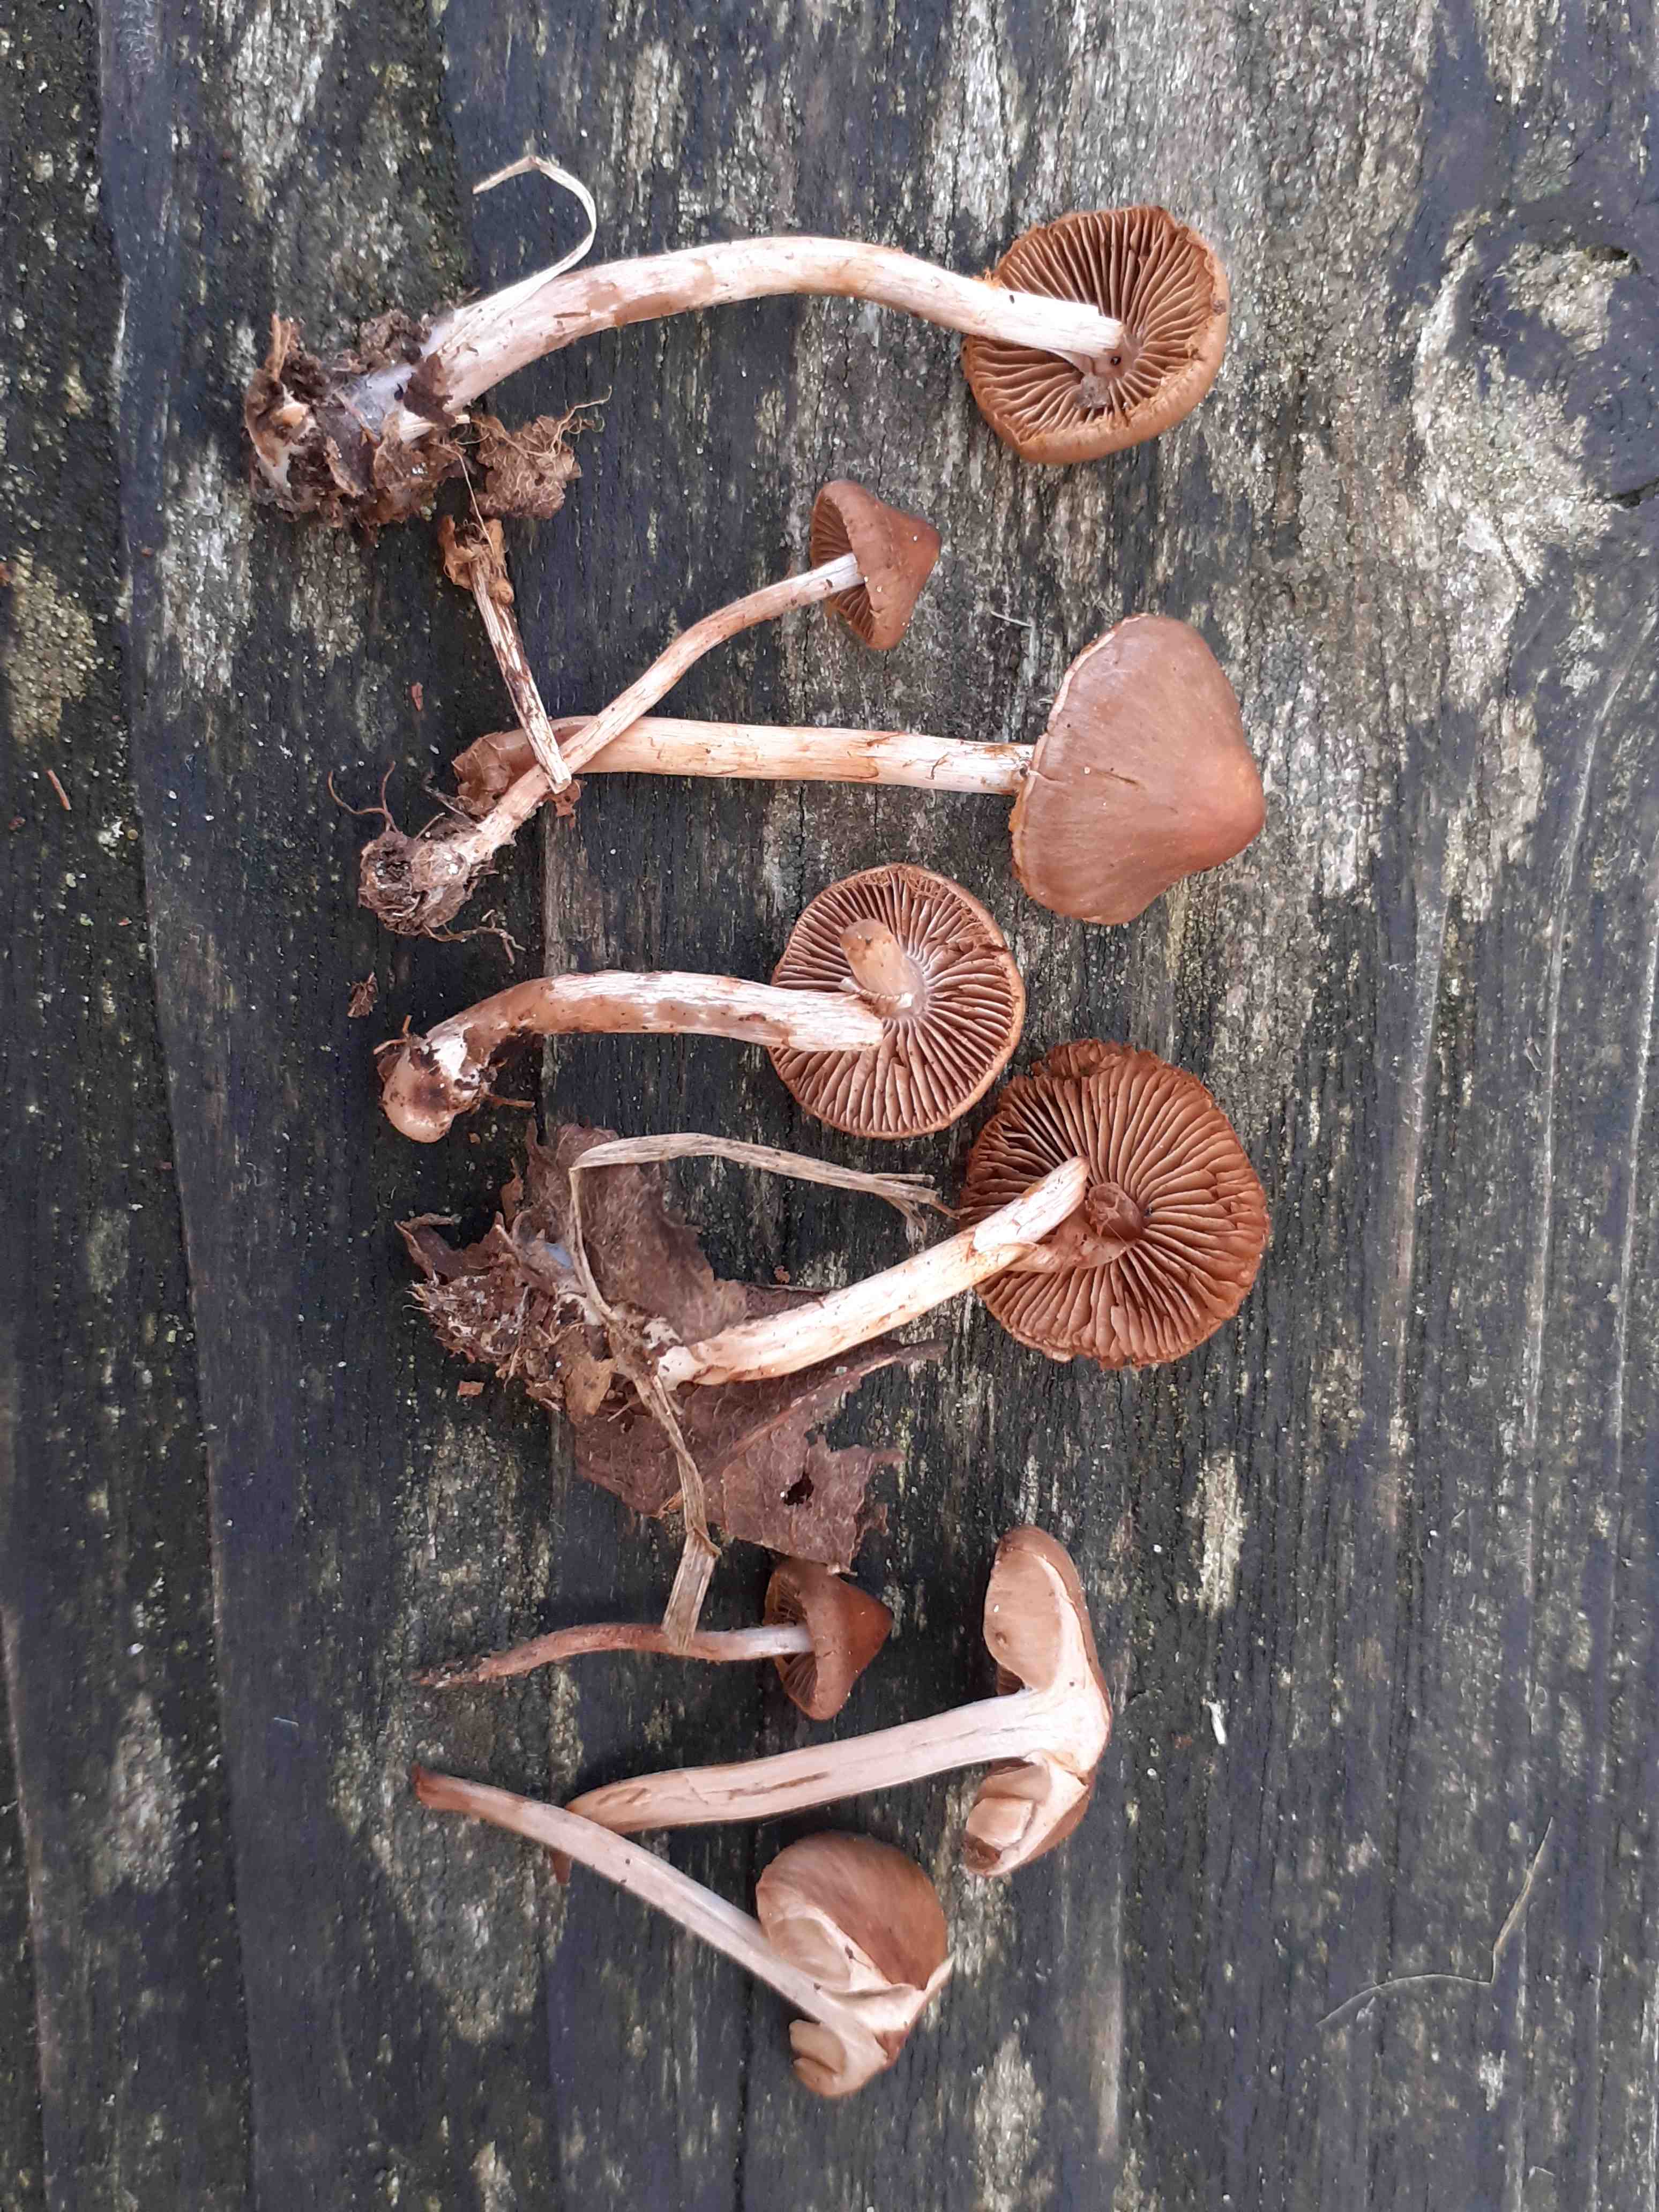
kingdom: Fungi
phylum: Basidiomycota
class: Agaricomycetes
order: Agaricales
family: Cortinariaceae
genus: Cortinarius
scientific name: Cortinarius praestigiosus
